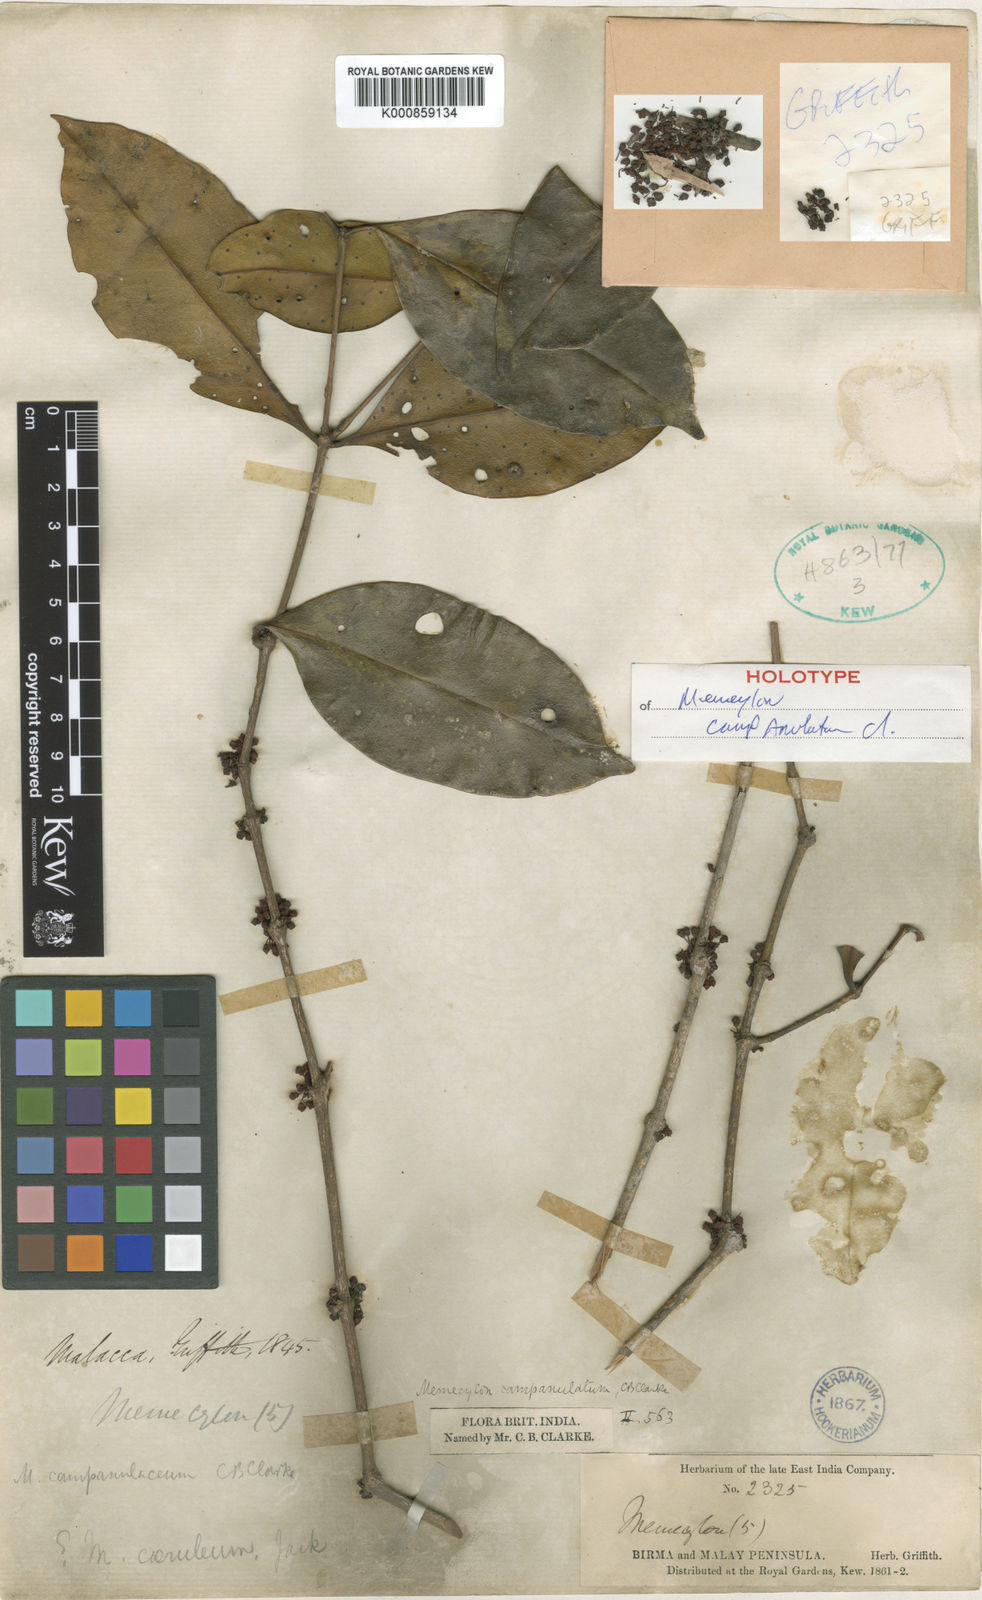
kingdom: Plantae
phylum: Tracheophyta
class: Magnoliopsida
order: Myrtales
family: Melastomataceae
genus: Memecylon
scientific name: Memecylon campanulatum
